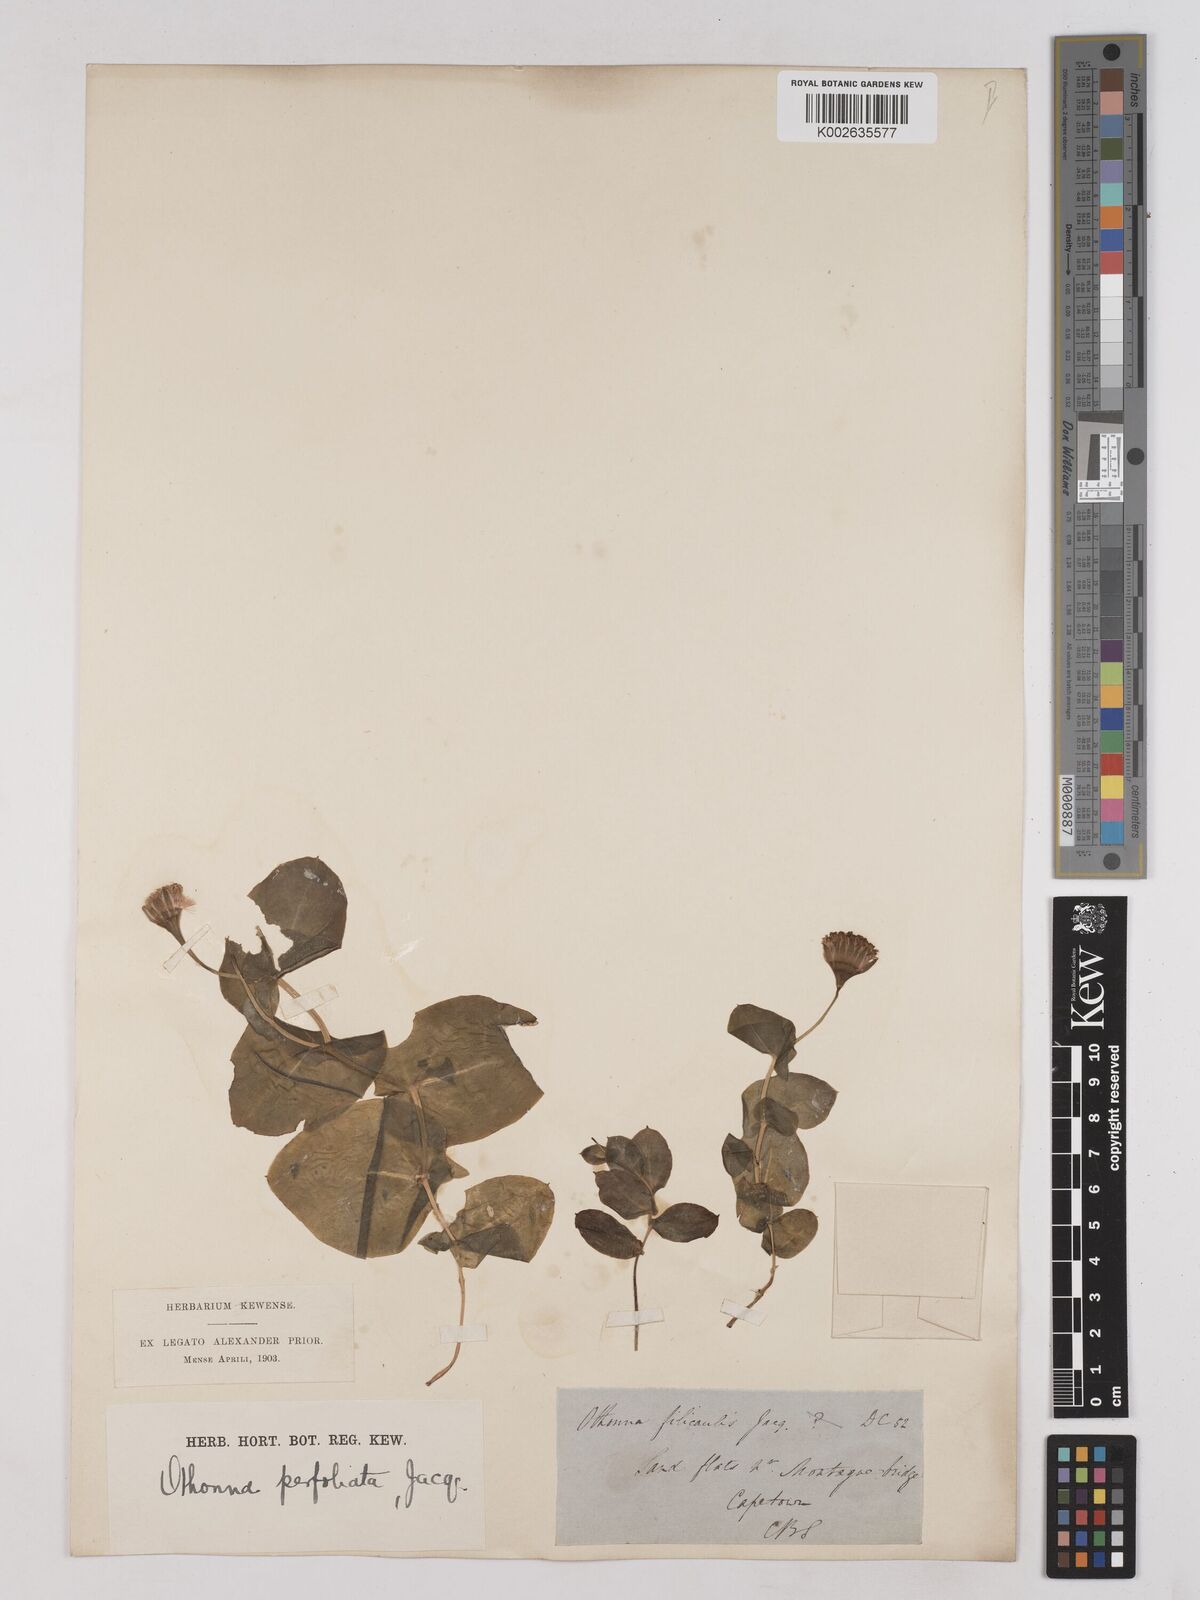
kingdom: Plantae
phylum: Tracheophyta
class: Magnoliopsida
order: Asterales
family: Asteraceae
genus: Othonna
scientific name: Othonna bulbosa
